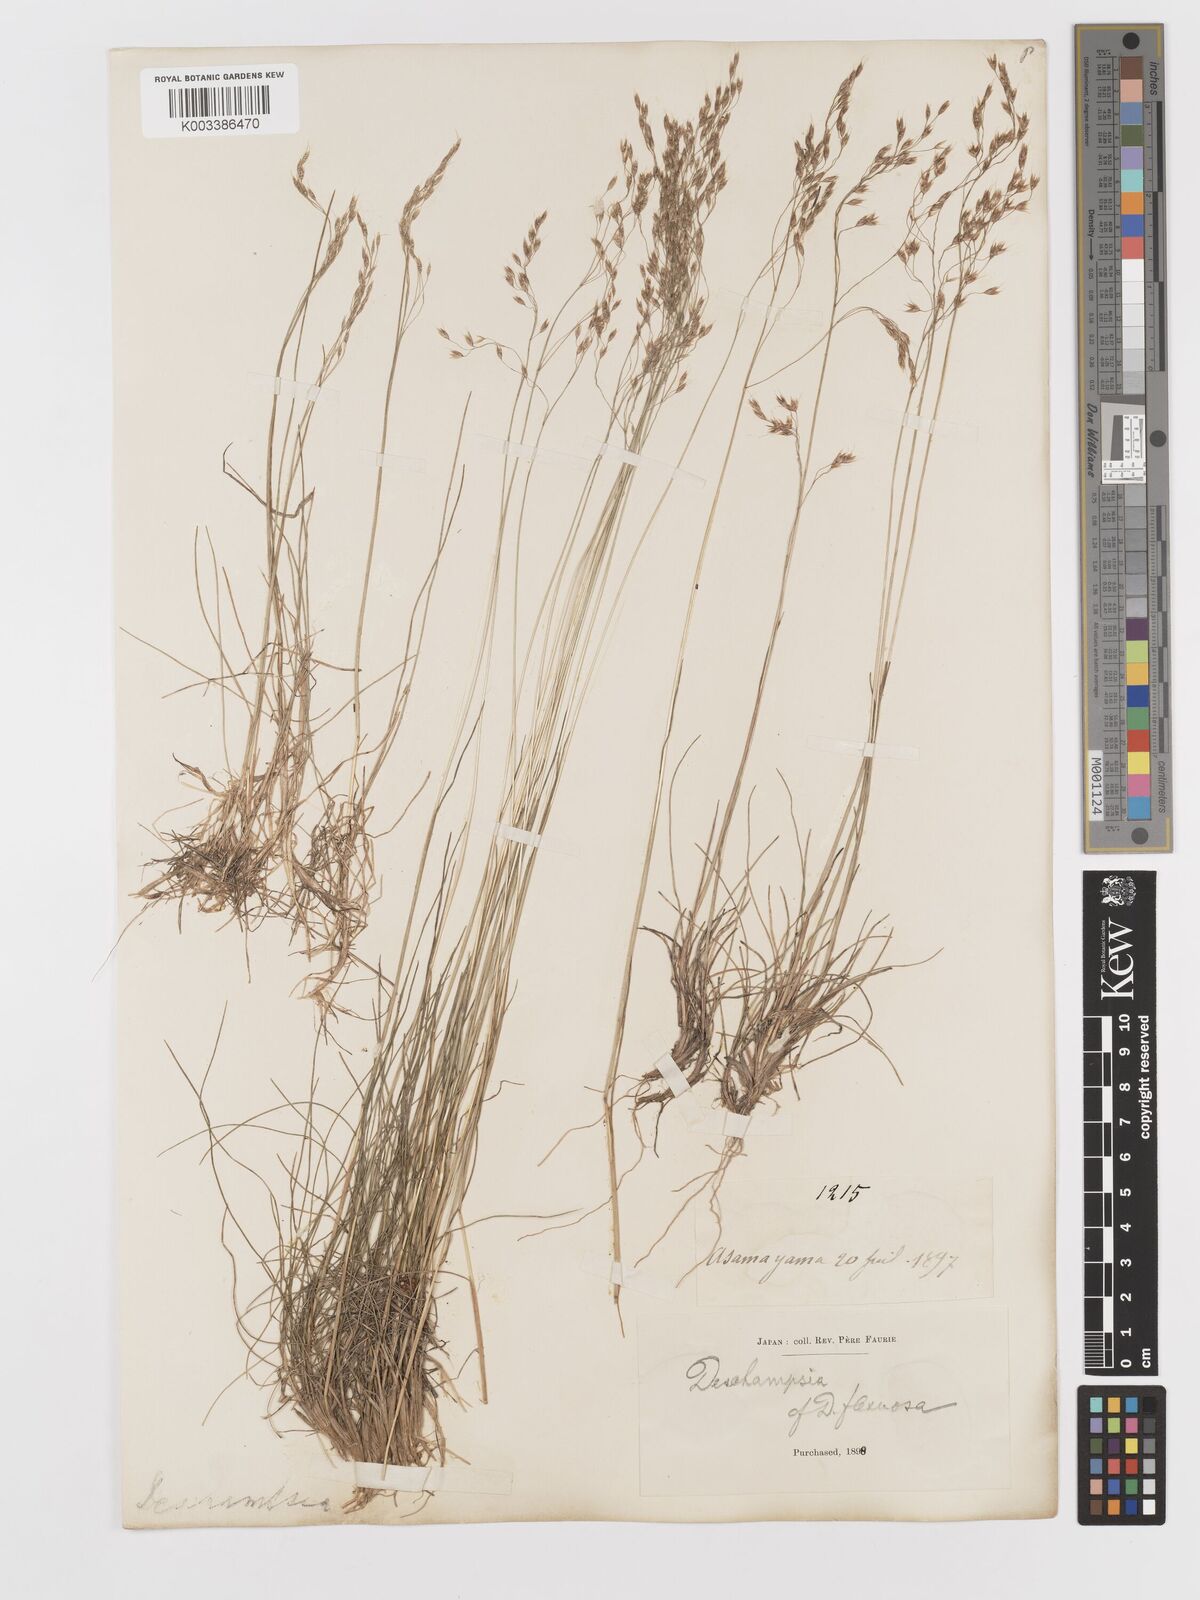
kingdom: Plantae
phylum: Tracheophyta
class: Liliopsida
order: Poales
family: Poaceae
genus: Avenella
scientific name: Avenella flexuosa
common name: Wavy hairgrass
